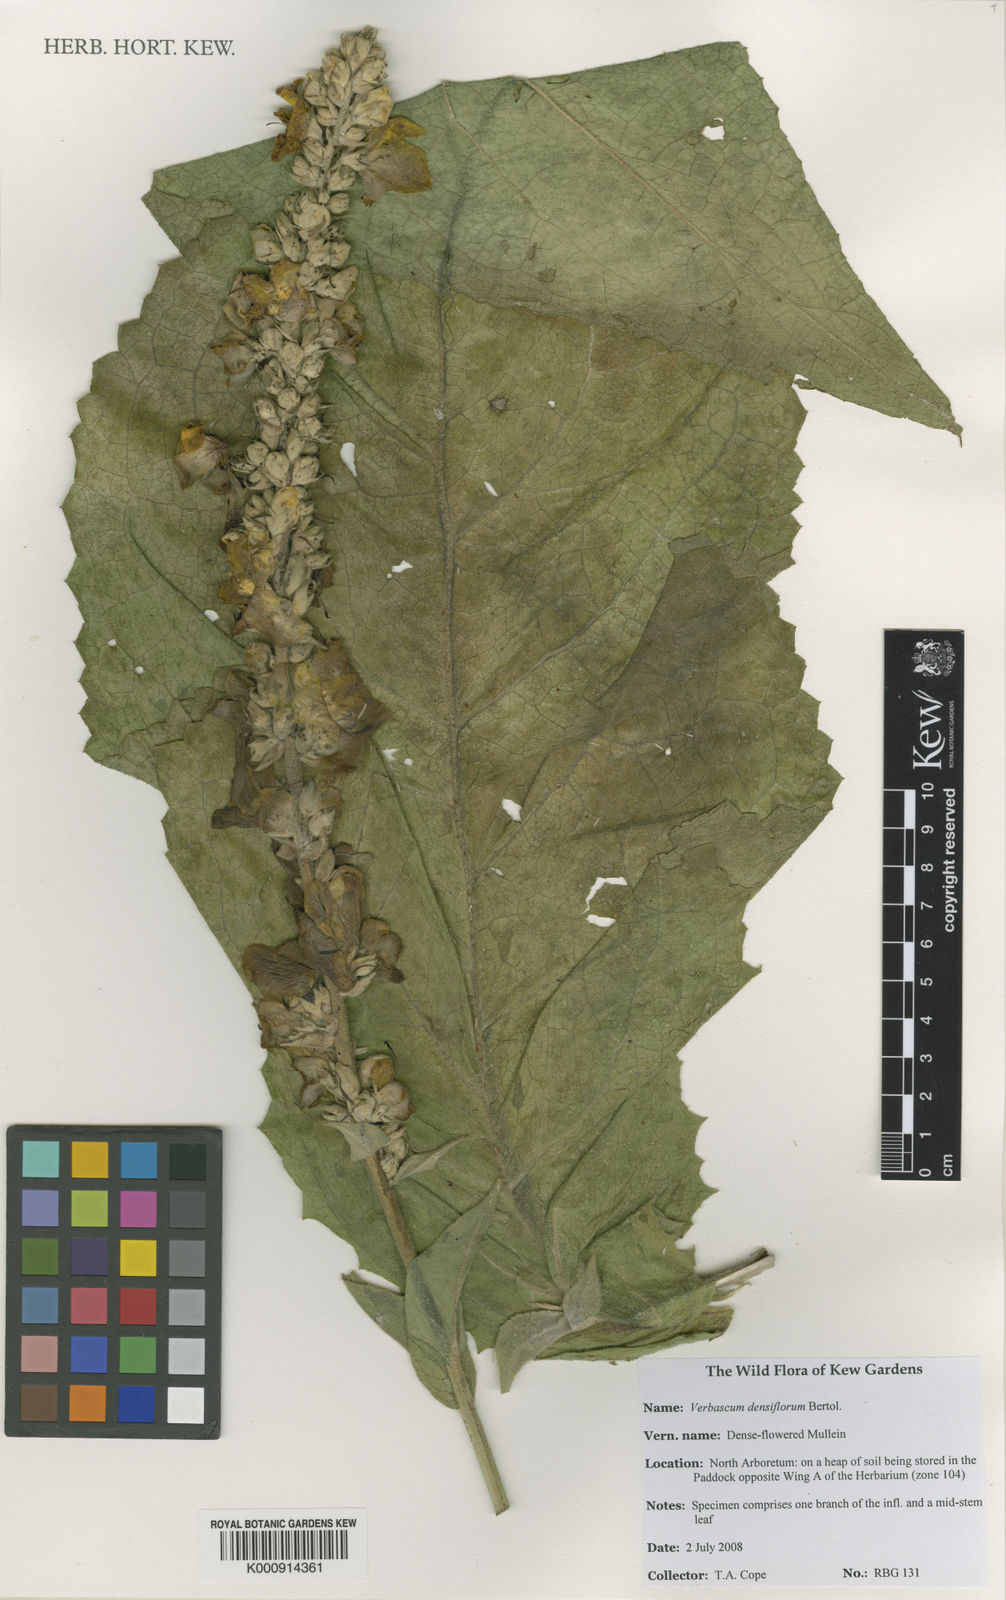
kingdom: Plantae
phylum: Tracheophyta
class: Magnoliopsida
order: Lamiales
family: Scrophulariaceae
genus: Verbascum
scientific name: Verbascum densiflorum
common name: Dense-flowered mullein
